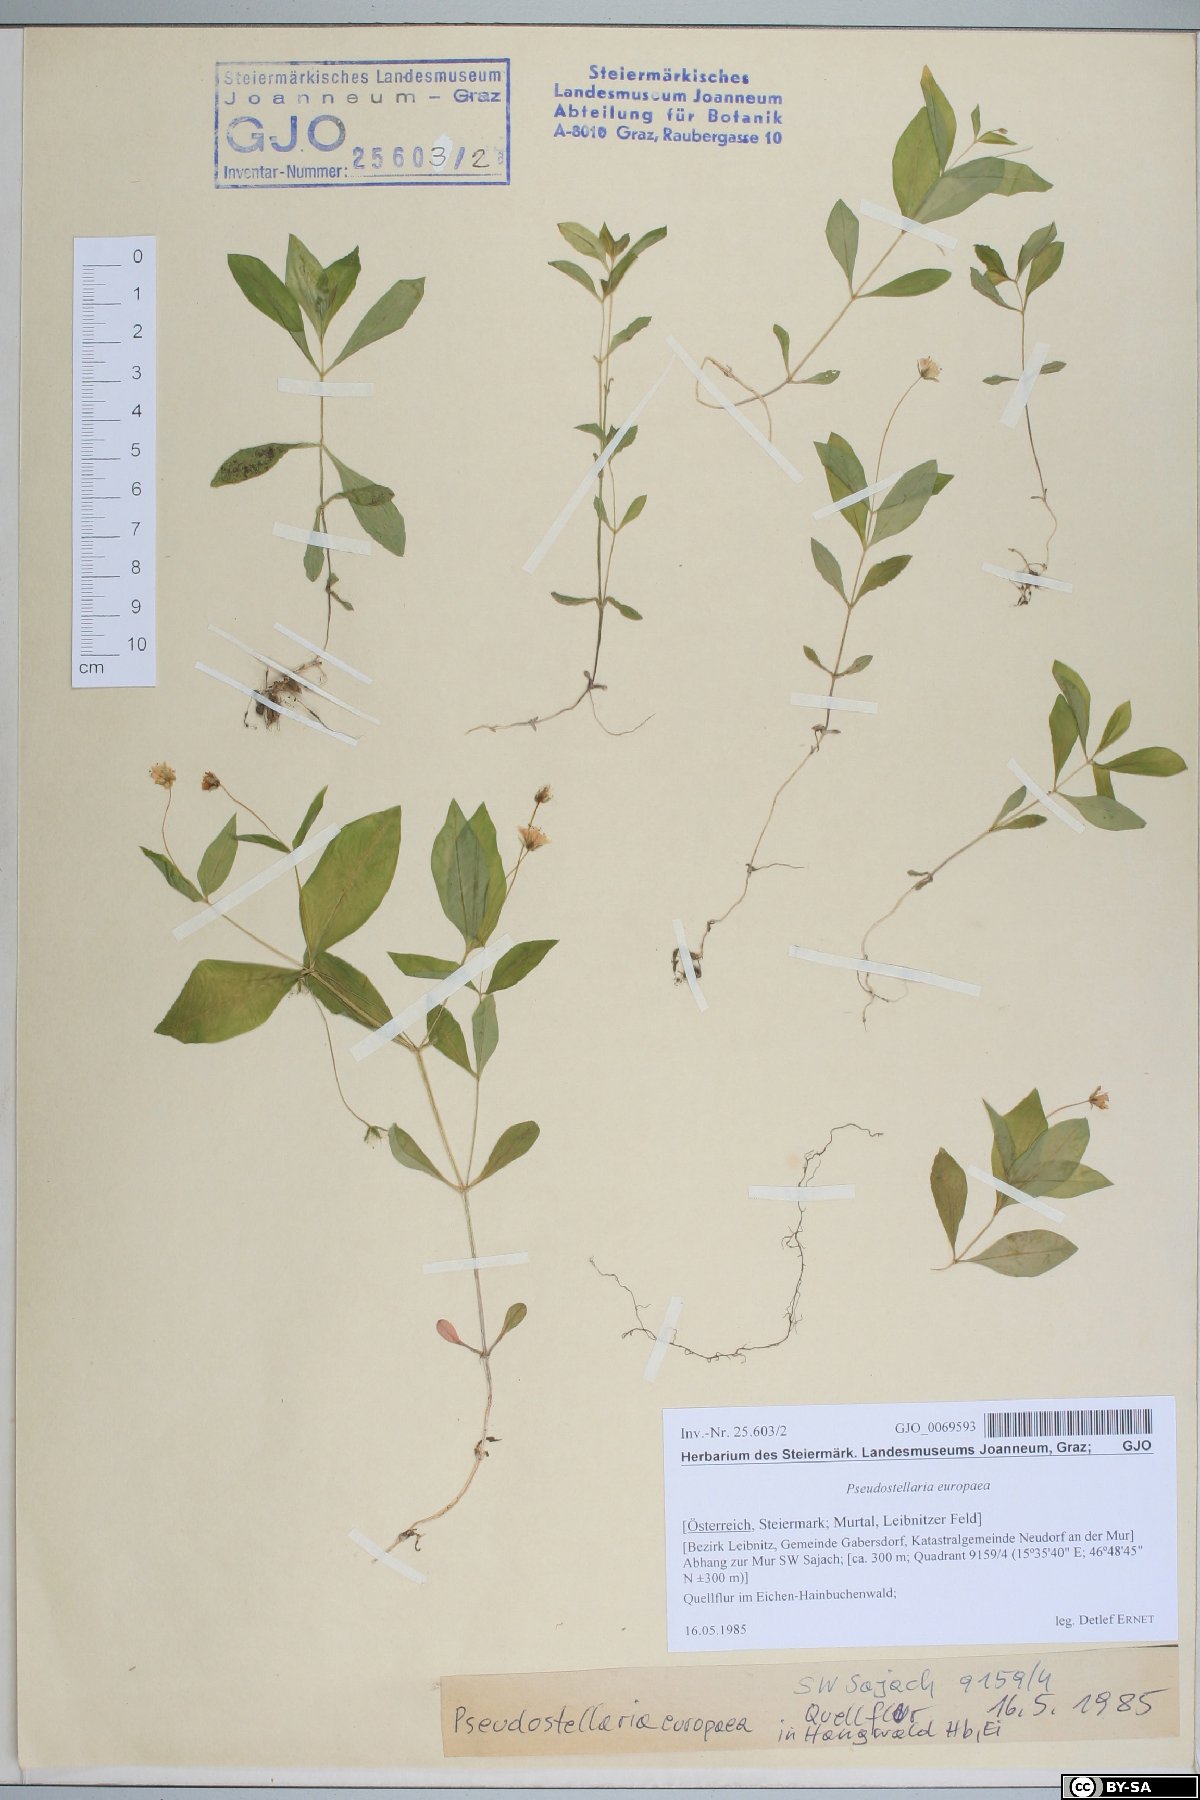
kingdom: Plantae
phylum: Tracheophyta
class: Magnoliopsida
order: Caryophyllales
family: Caryophyllaceae
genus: Pseudostellaria
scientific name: Pseudostellaria europaea
